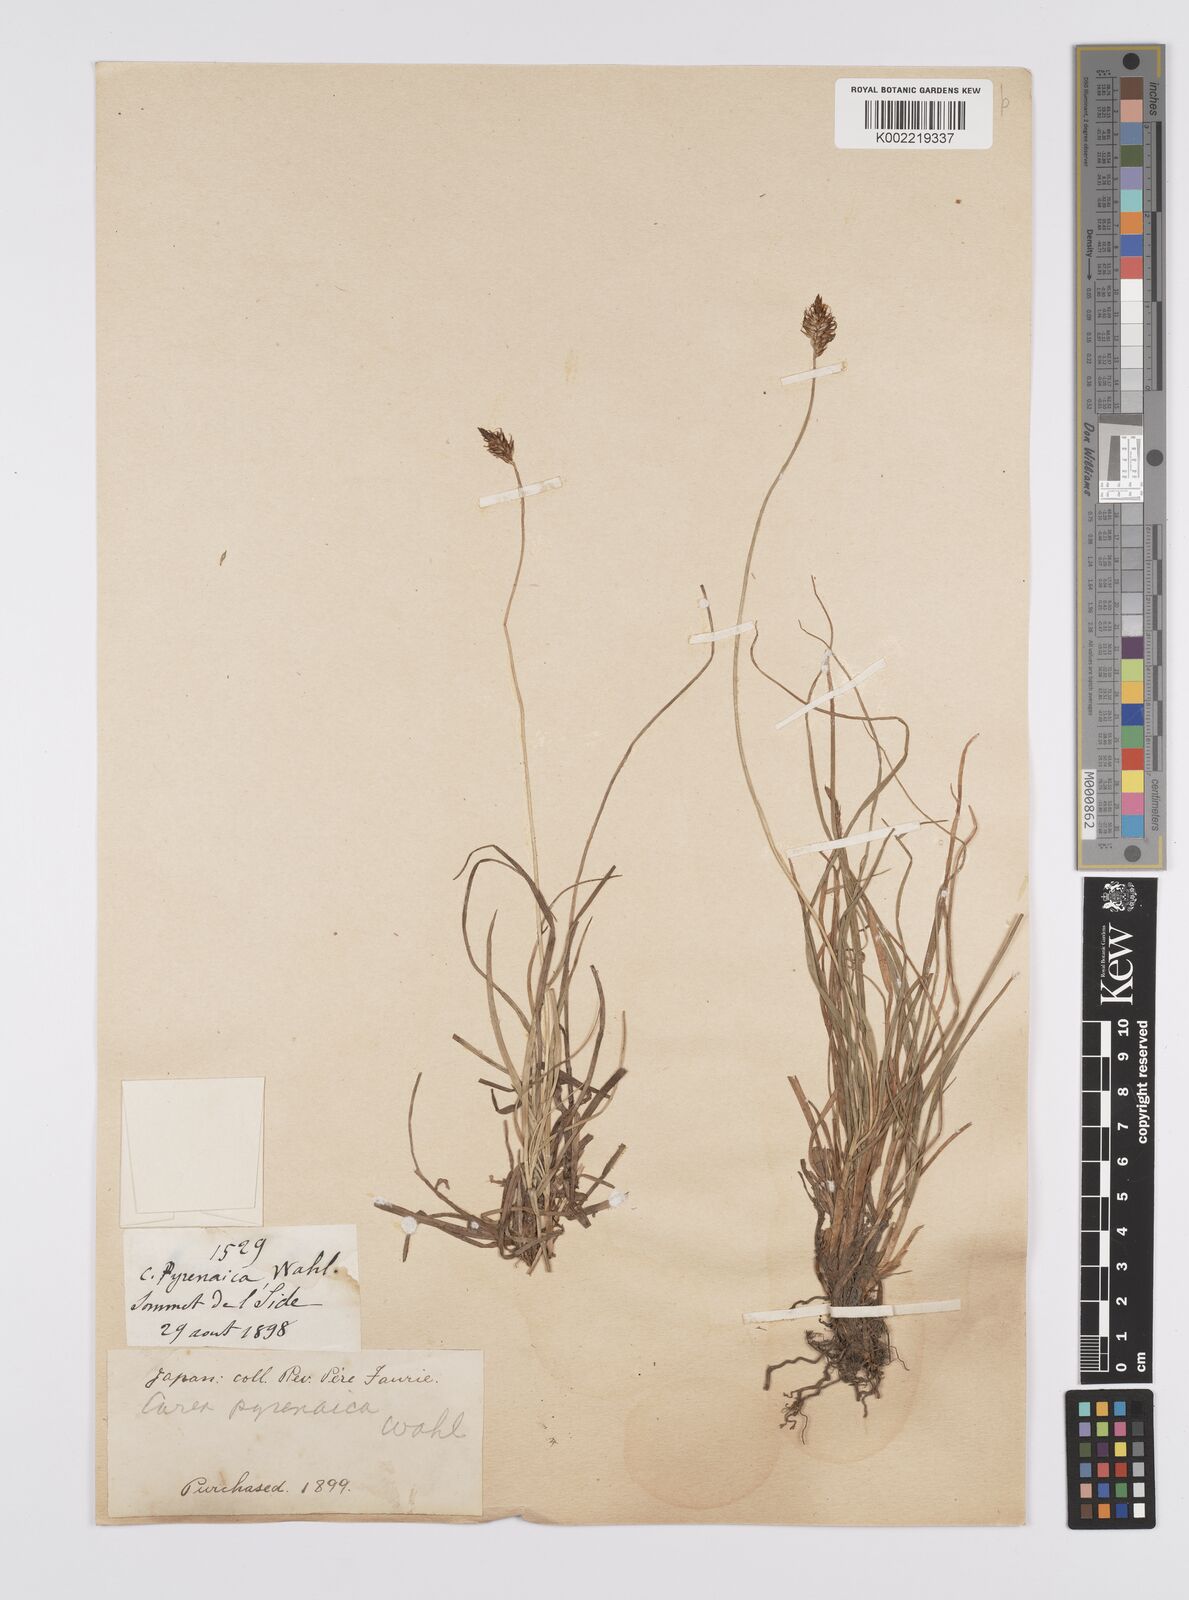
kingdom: Plantae
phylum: Tracheophyta
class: Liliopsida
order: Poales
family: Cyperaceae
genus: Carex
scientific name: Carex pyrenaica
